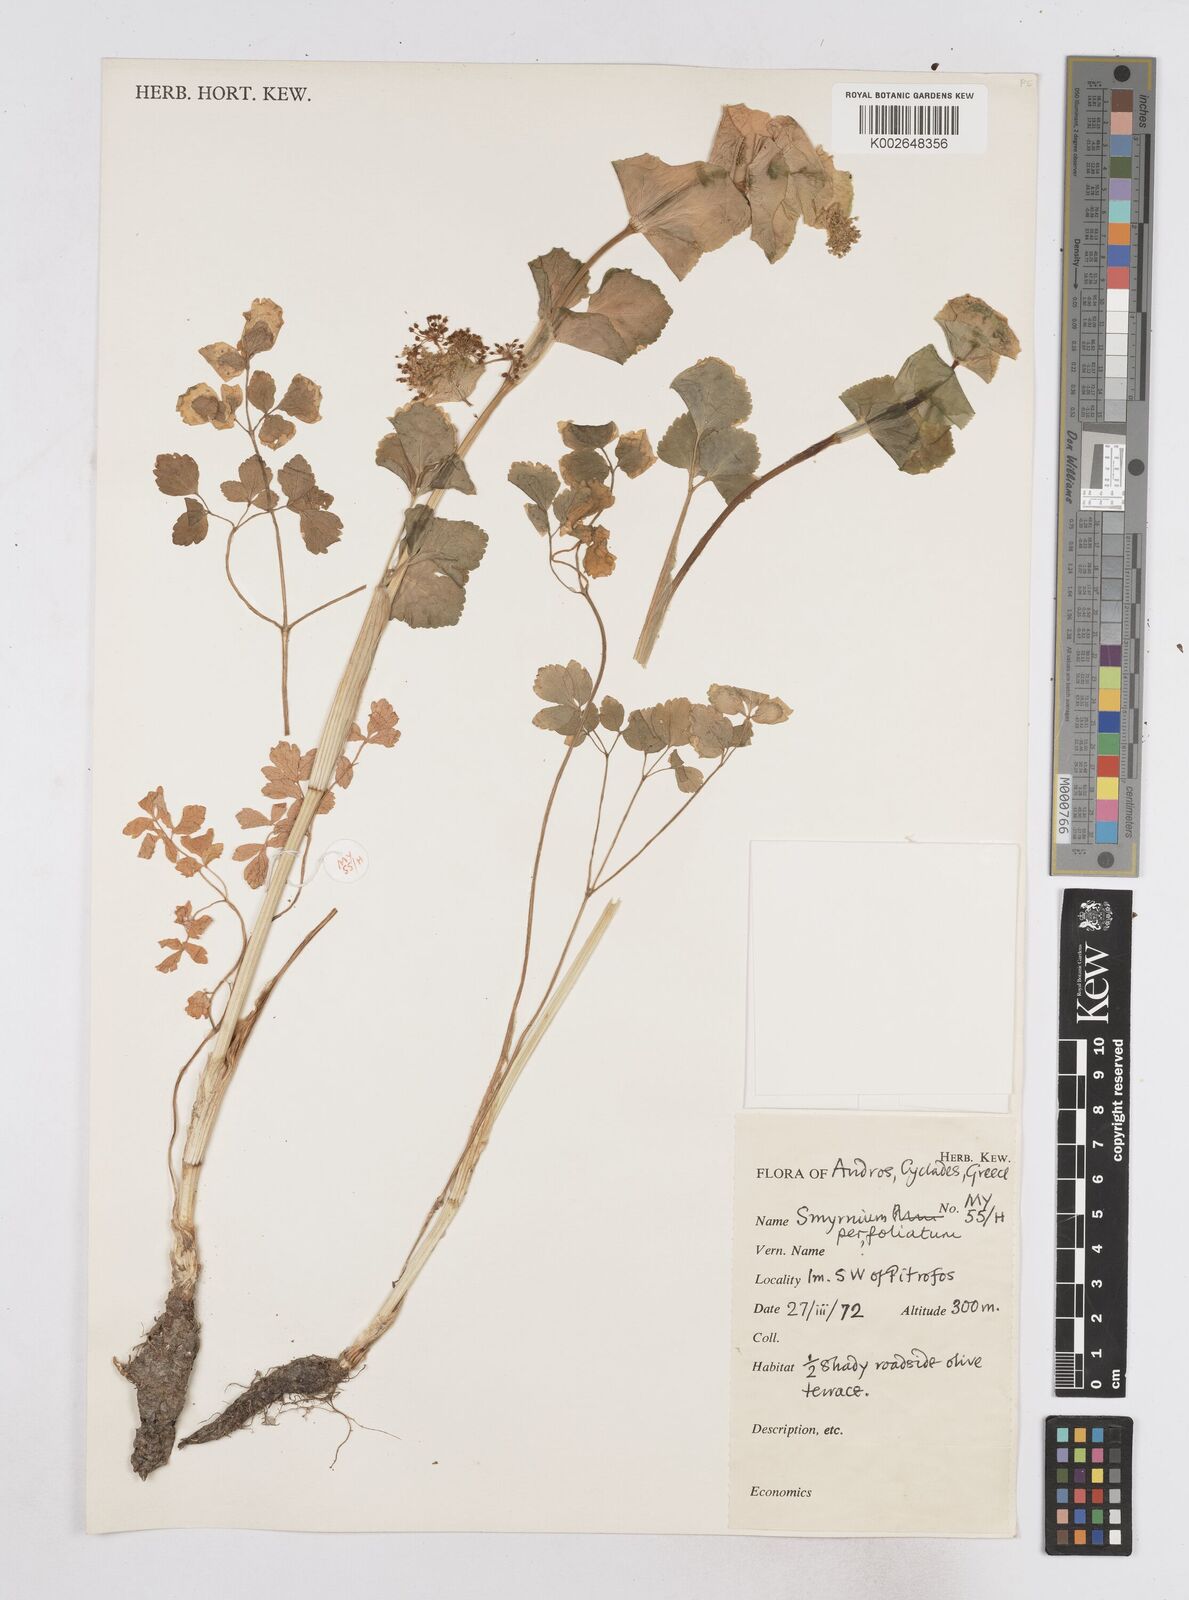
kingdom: Plantae
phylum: Tracheophyta
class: Magnoliopsida
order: Apiales
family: Apiaceae
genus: Smyrnium
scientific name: Smyrnium perfoliatum
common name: Perfoliate alexanders
